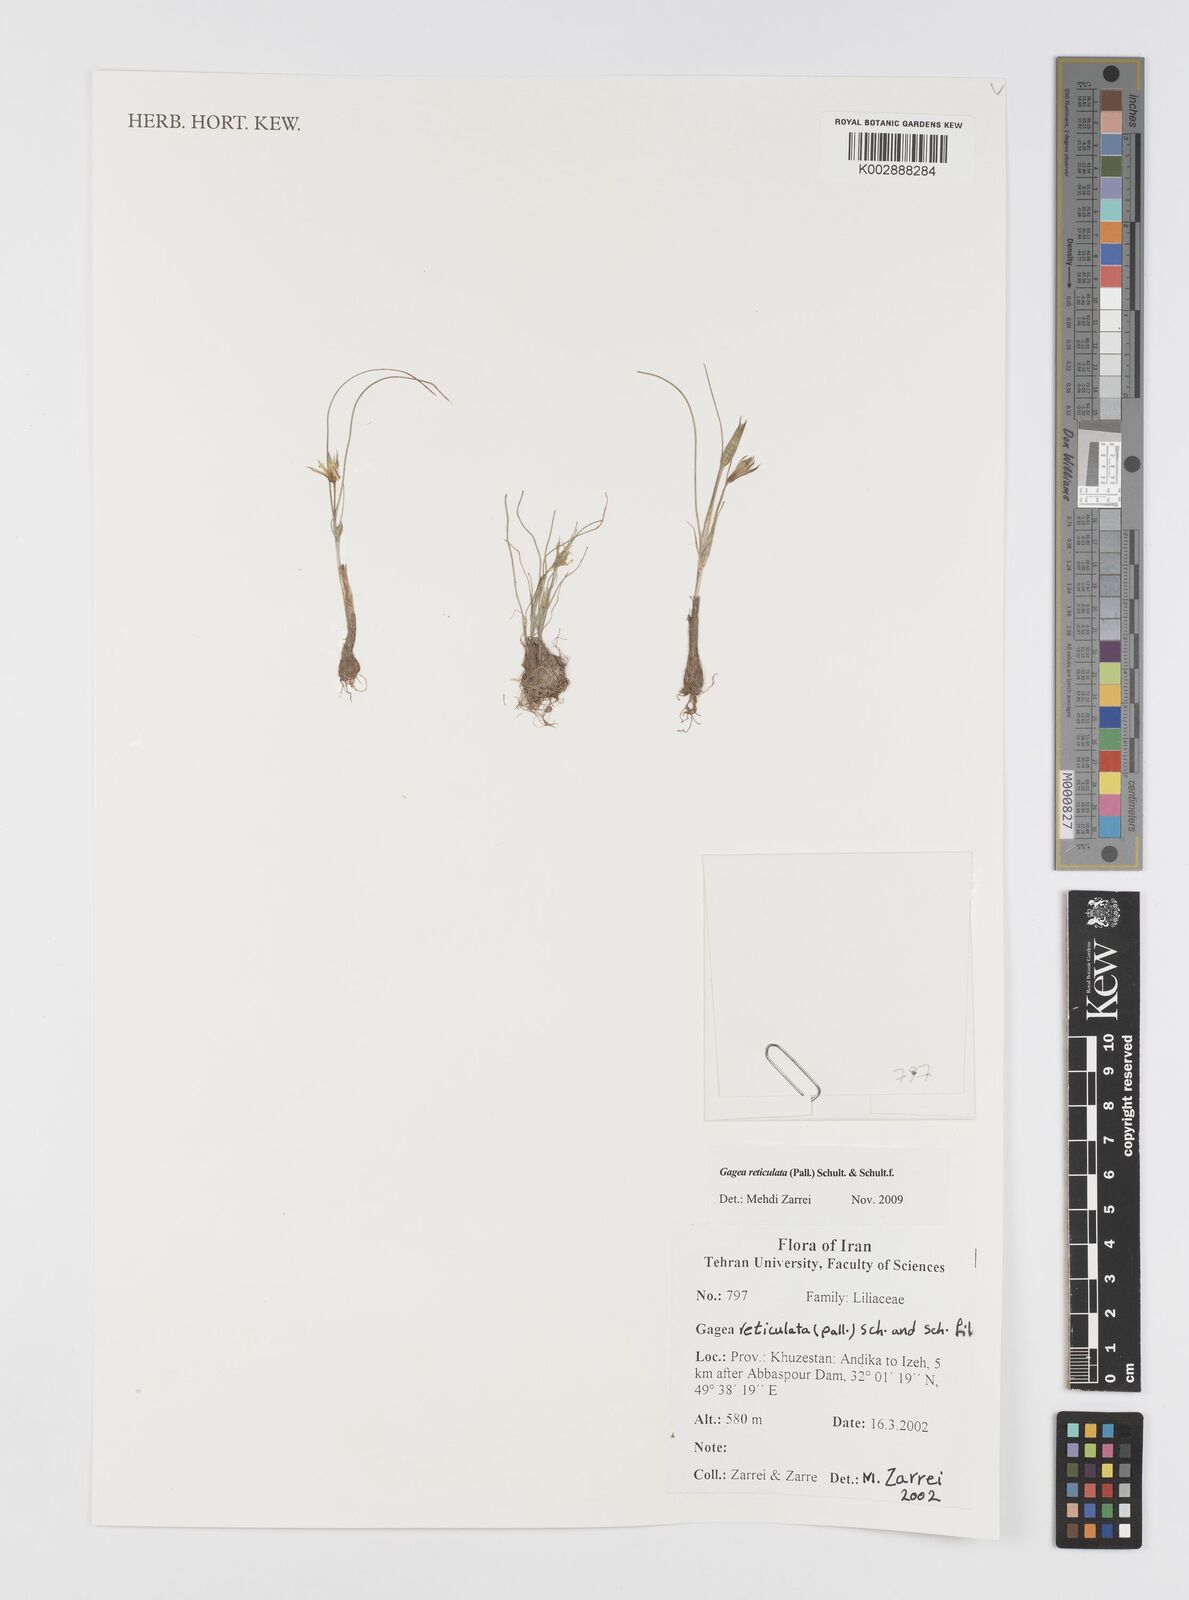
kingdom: Plantae
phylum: Tracheophyta
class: Liliopsida
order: Liliales
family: Liliaceae
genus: Gagea
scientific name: Gagea reticulata
